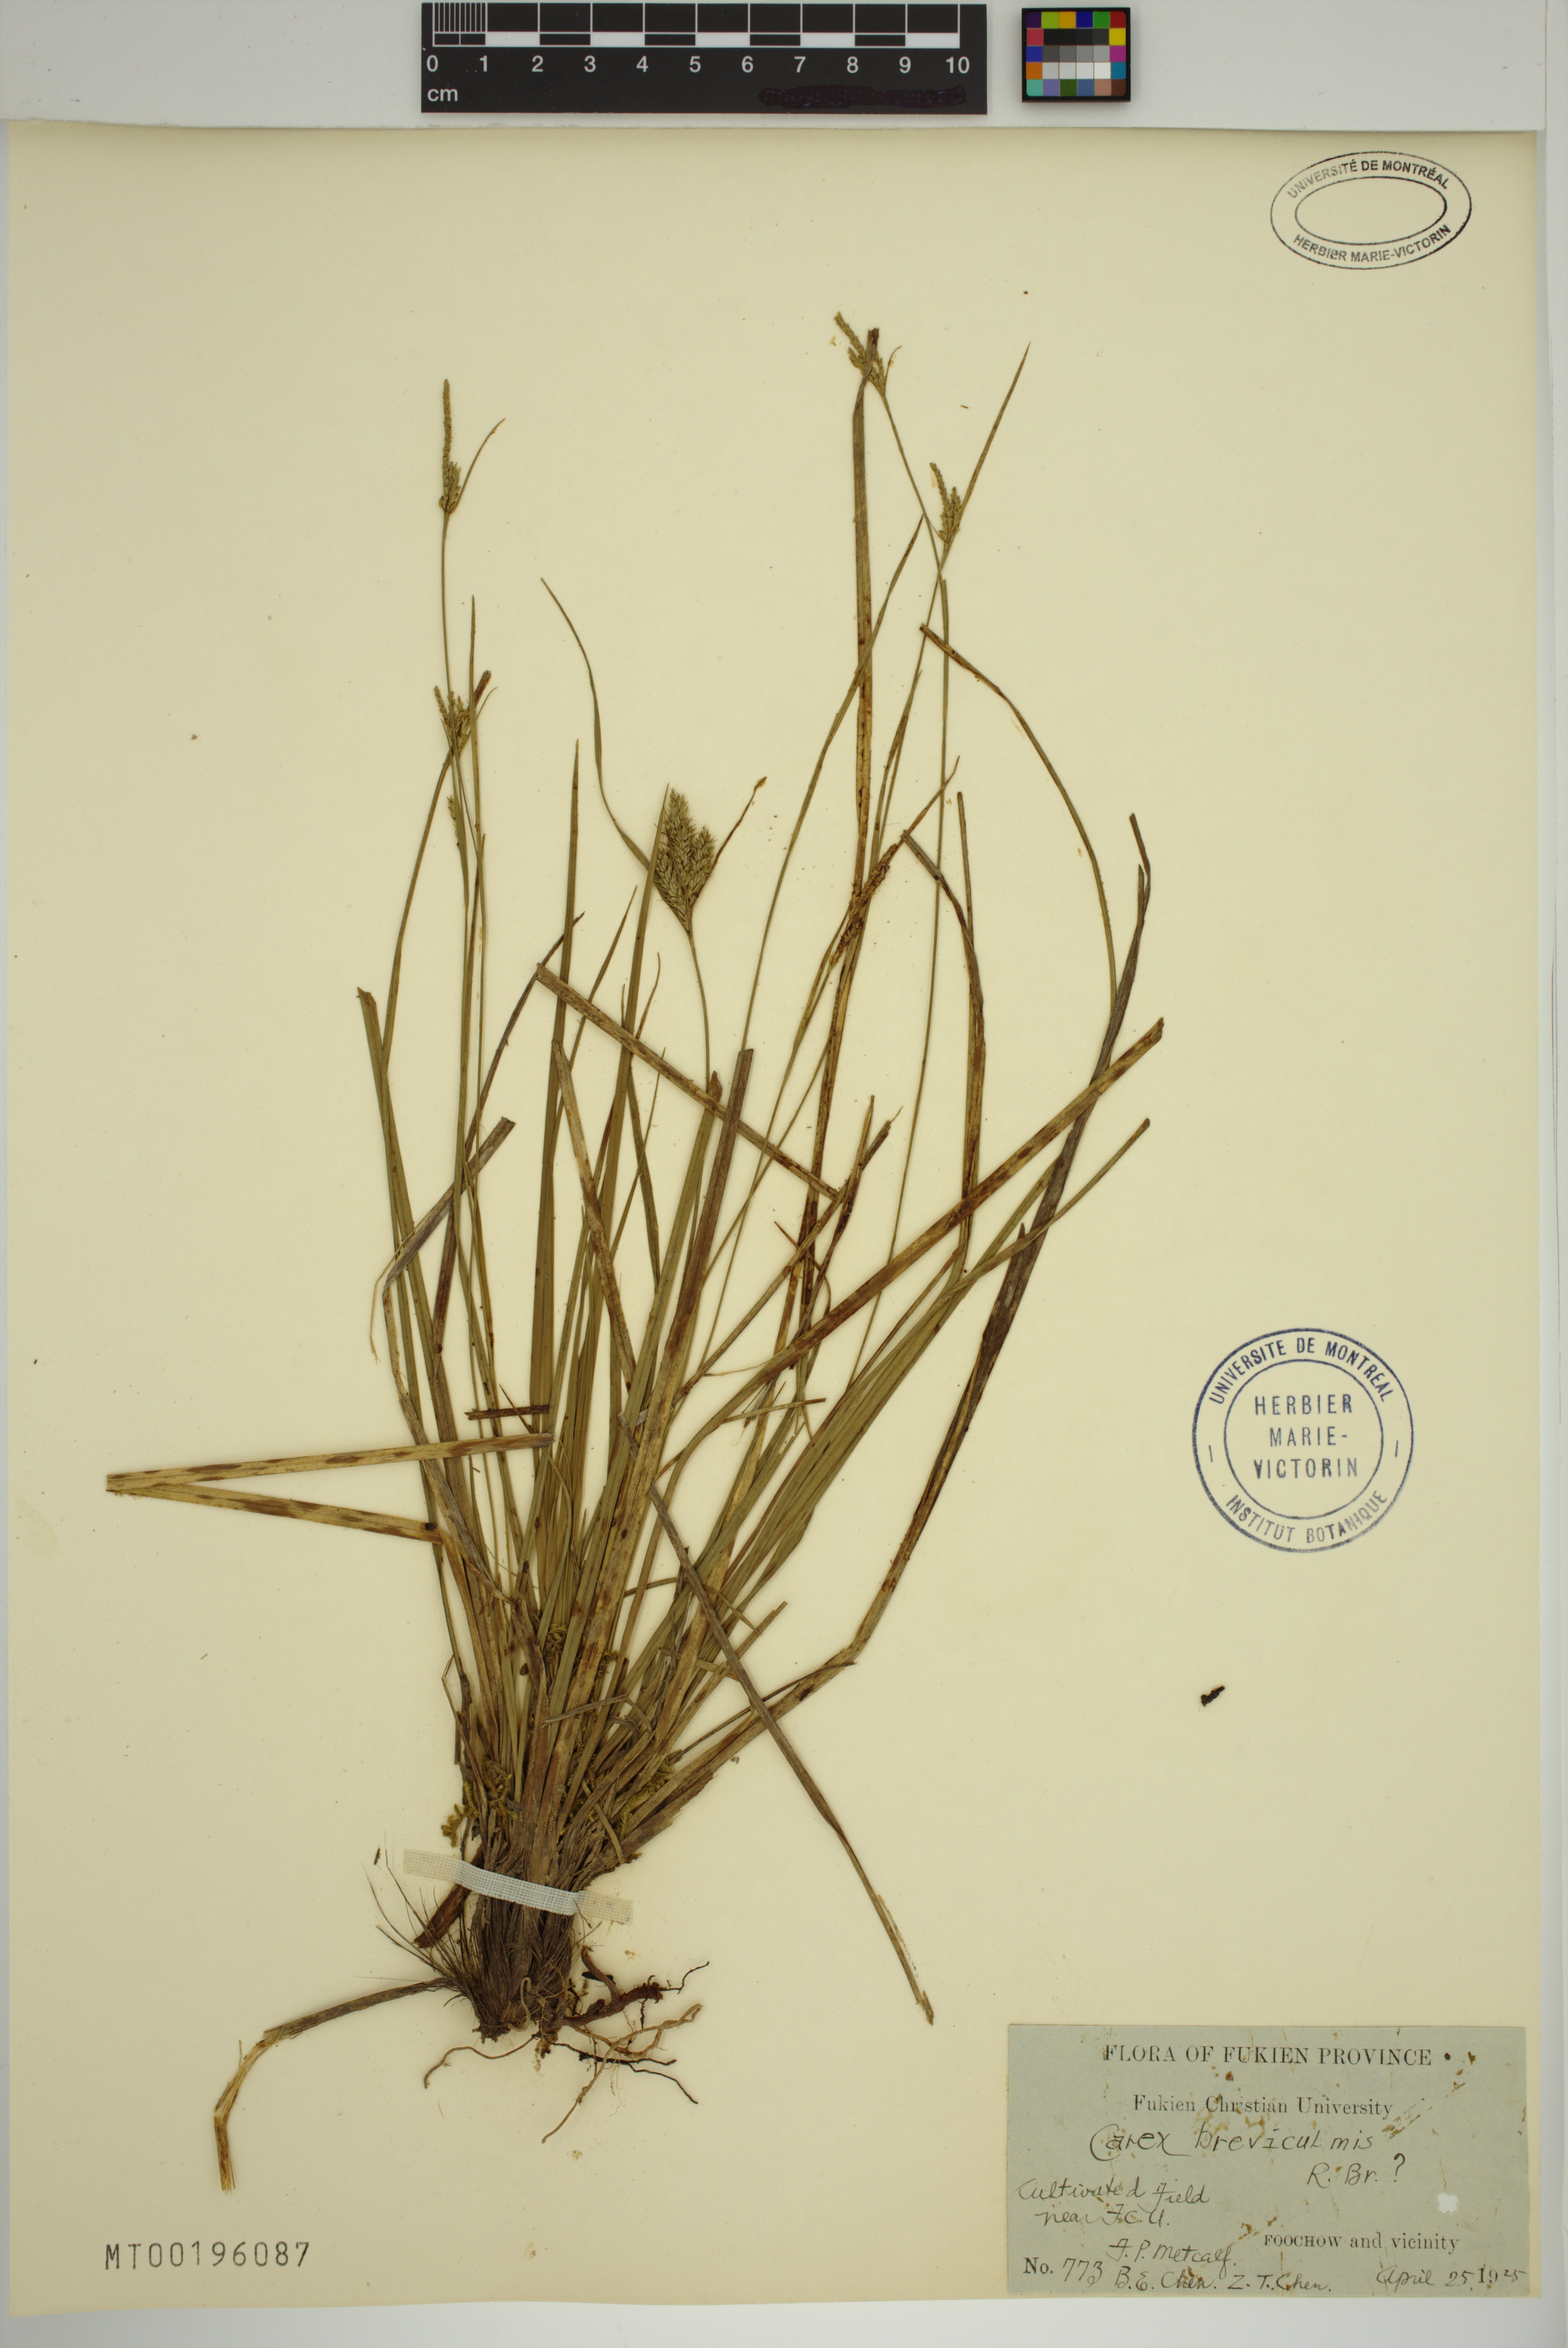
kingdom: Plantae
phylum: Tracheophyta
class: Liliopsida
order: Poales
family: Cyperaceae
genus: Carex
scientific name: Carex breviculmis
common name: Asian shortstem sedge
